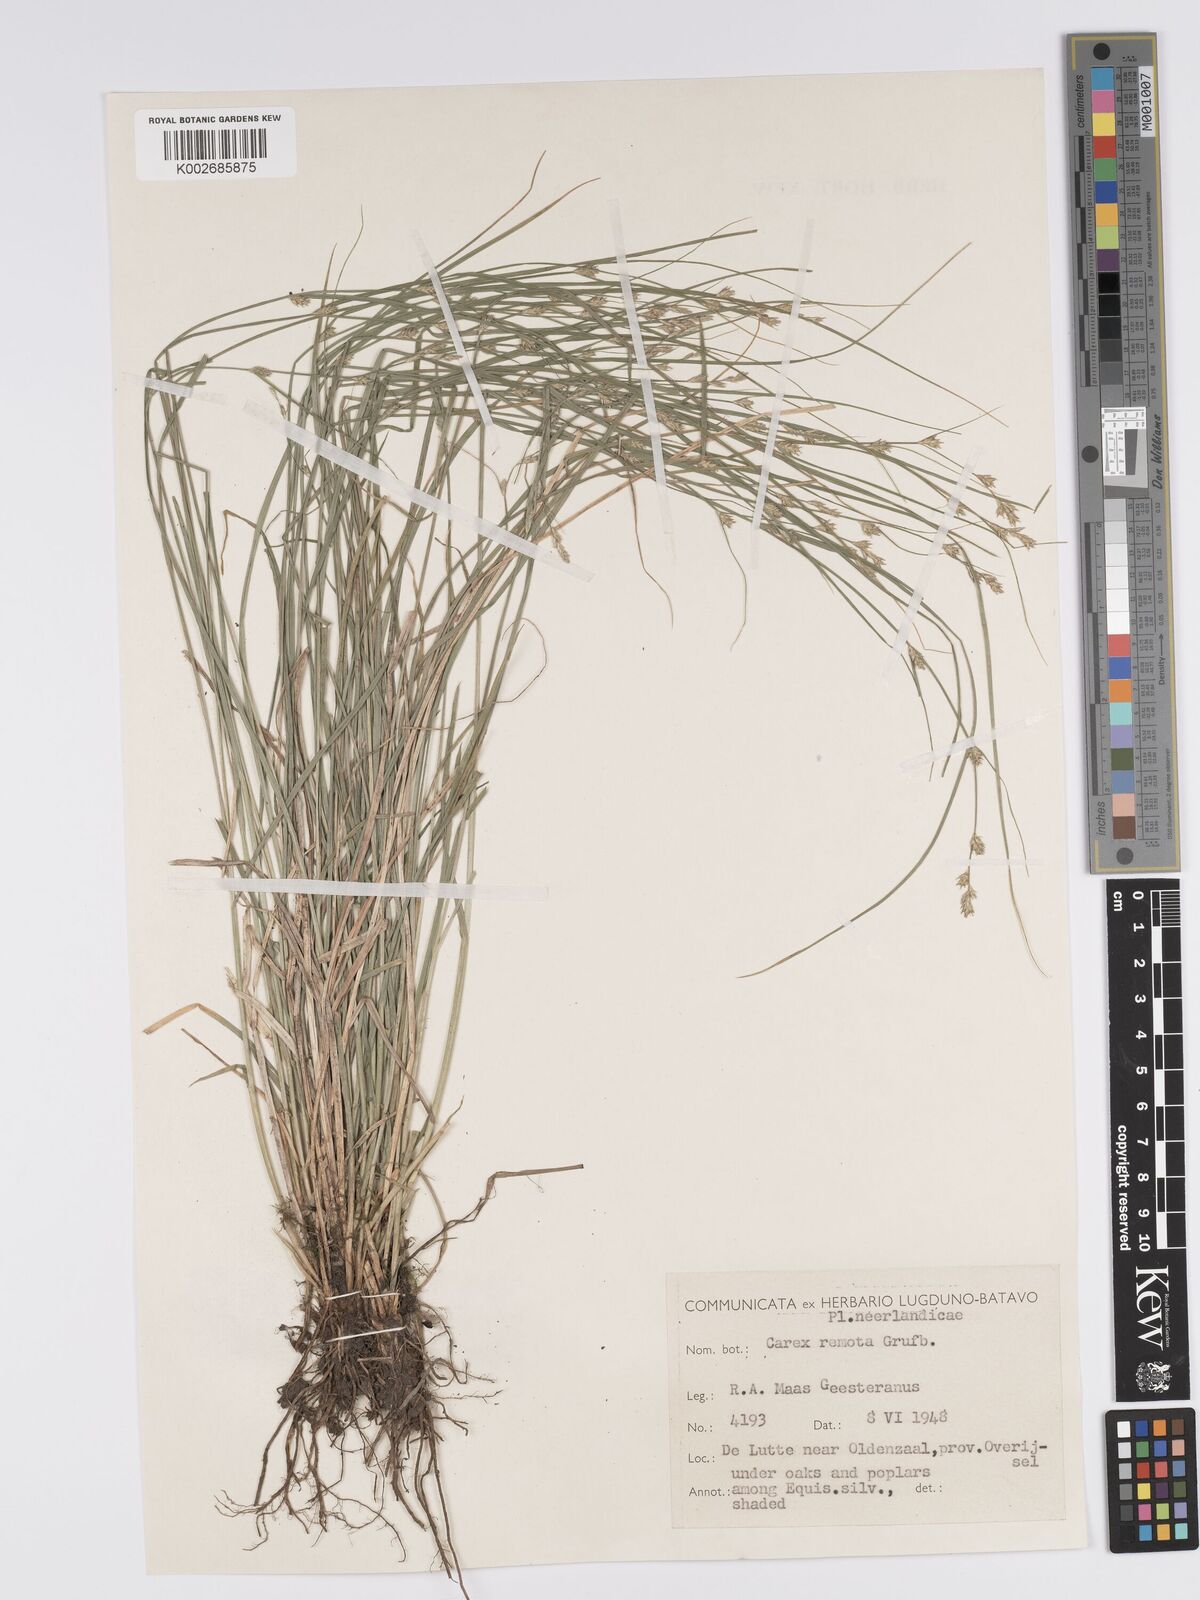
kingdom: Plantae
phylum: Tracheophyta
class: Liliopsida
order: Poales
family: Cyperaceae
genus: Carex
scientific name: Carex remota
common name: Remote sedge
